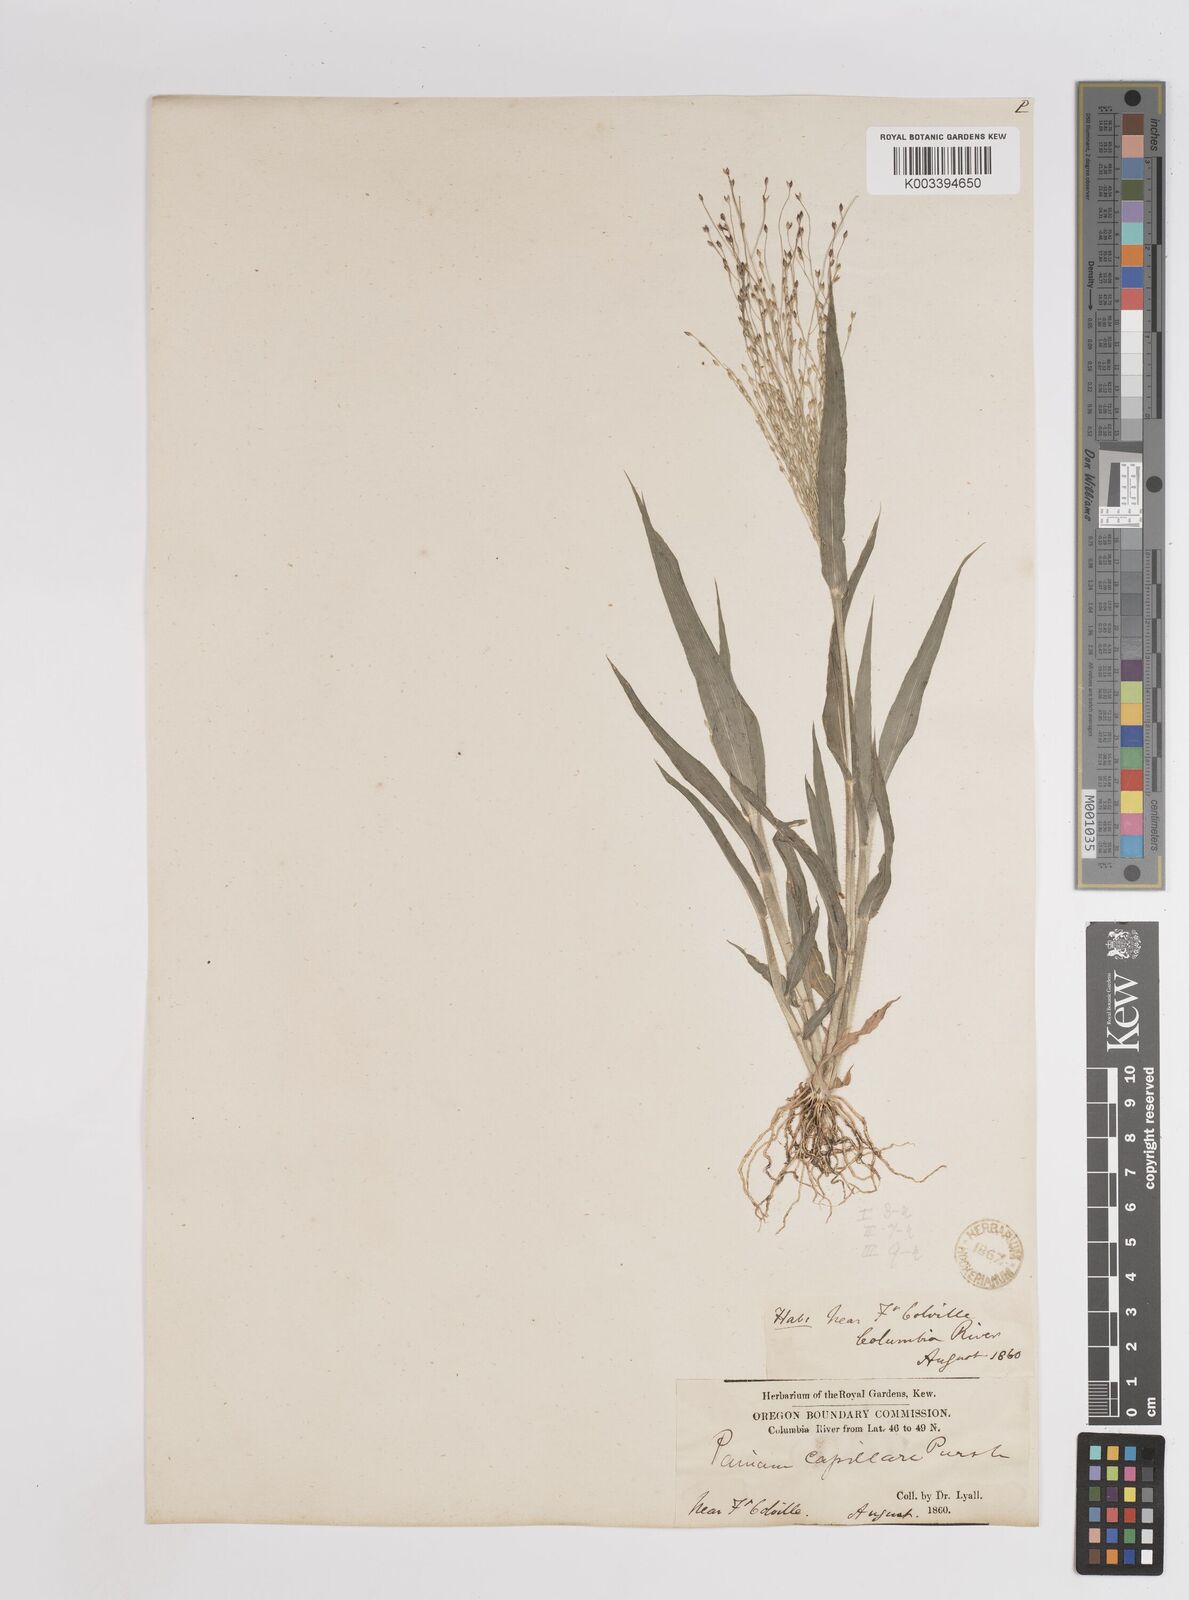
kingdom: Plantae
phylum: Tracheophyta
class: Liliopsida
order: Poales
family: Poaceae
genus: Panicum
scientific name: Panicum capillare
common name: Witch-grass
